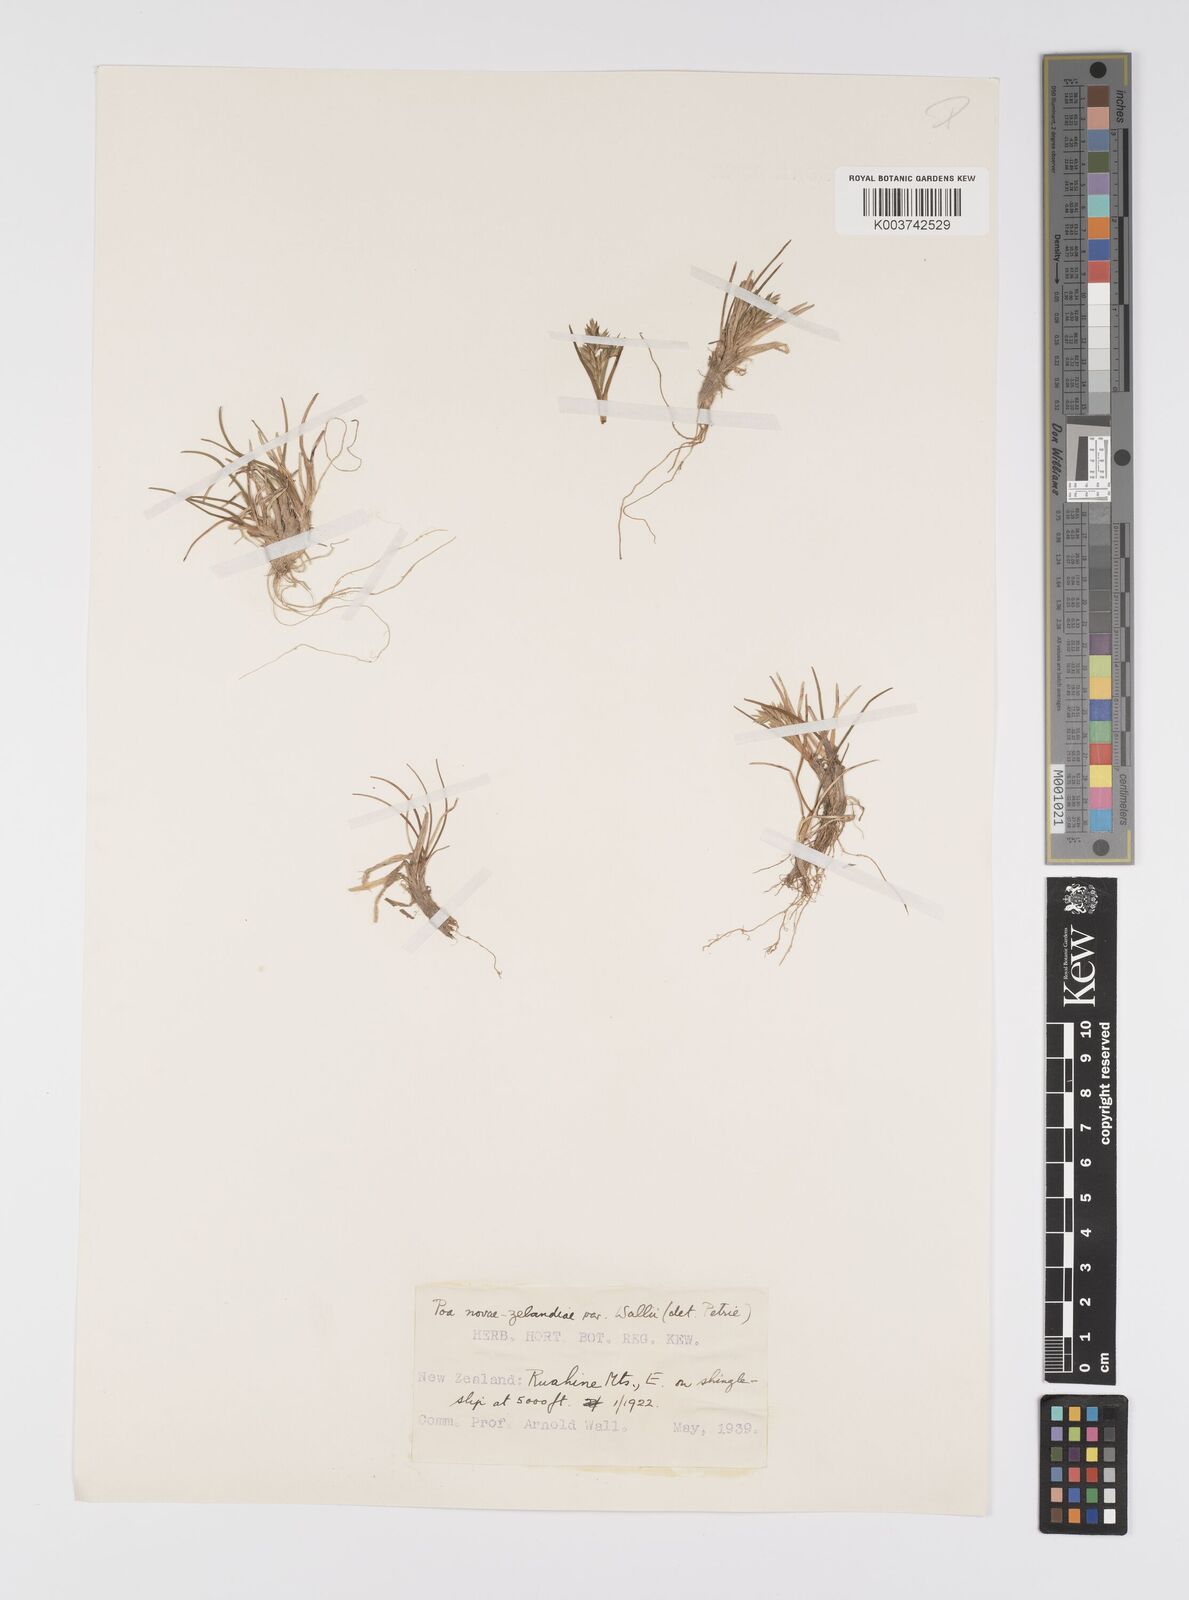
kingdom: Plantae
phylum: Tracheophyta
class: Liliopsida
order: Poales
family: Poaceae
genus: Poa
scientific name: Poa novae-zelandiae
